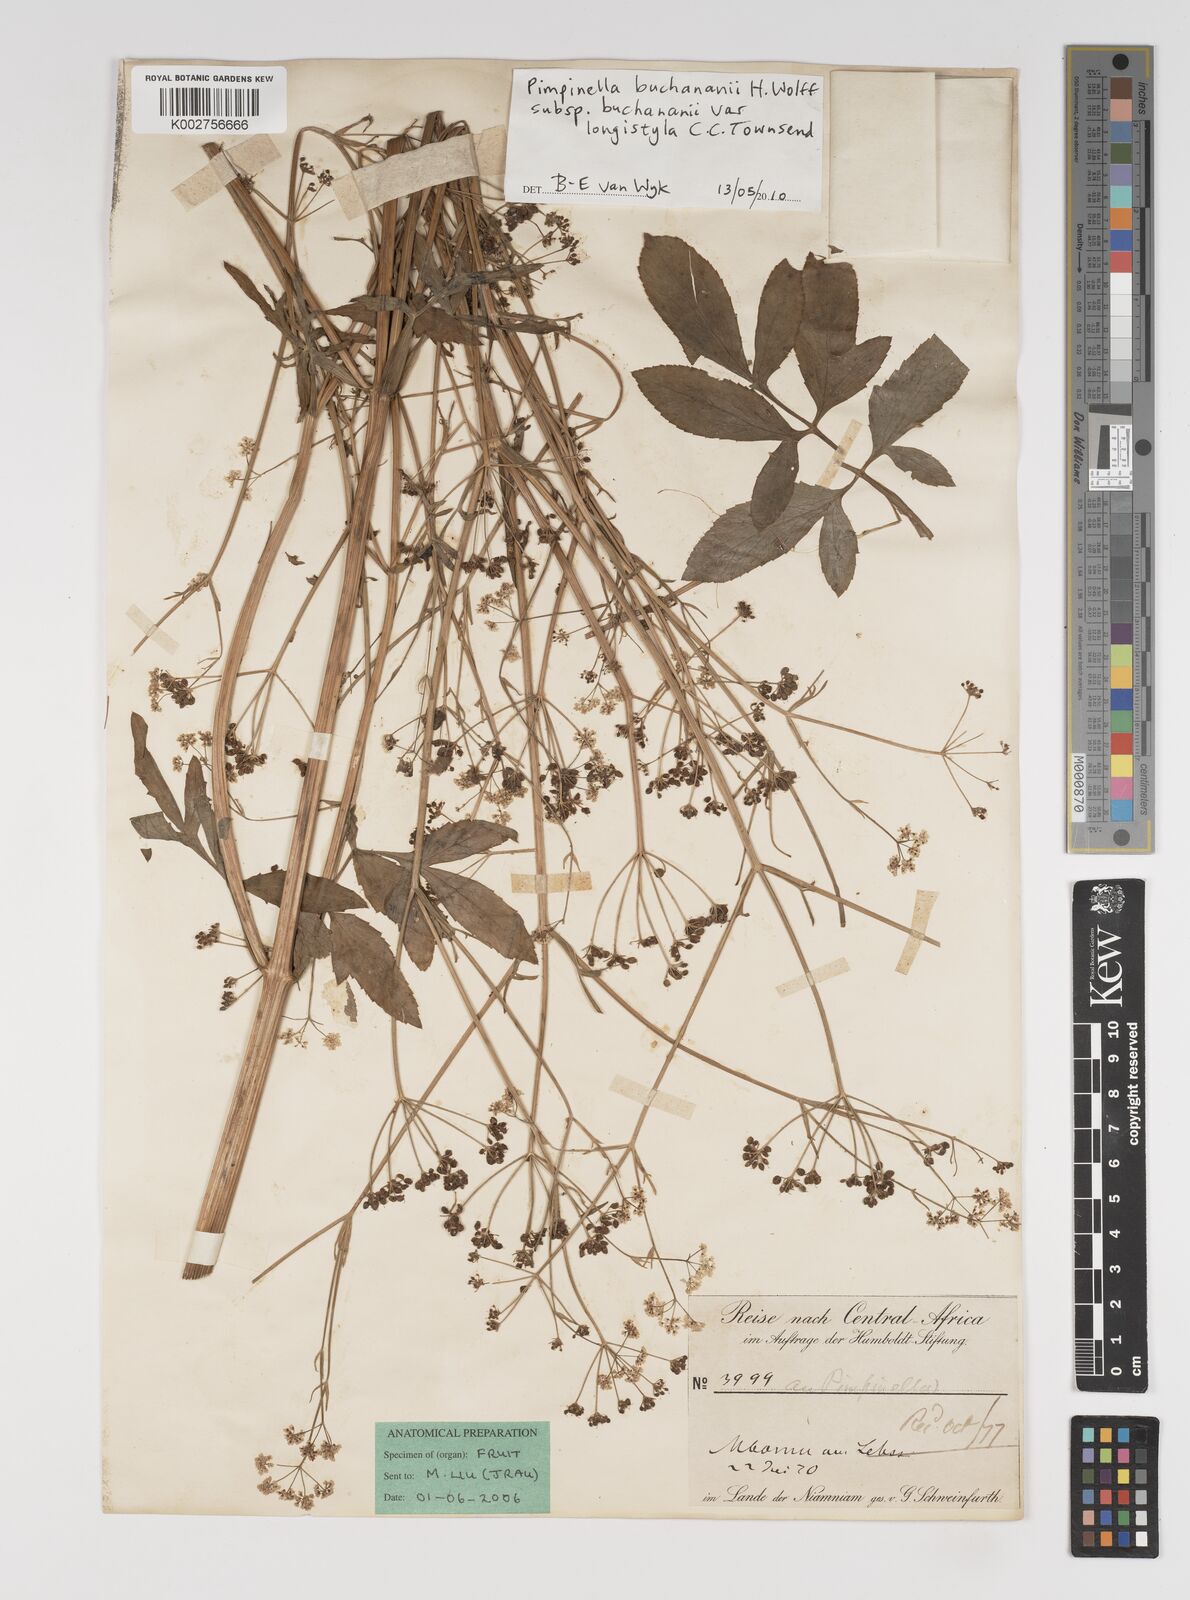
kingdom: Plantae
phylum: Tracheophyta
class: Magnoliopsida
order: Apiales
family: Apiaceae
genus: Pimpinella
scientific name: Pimpinella
